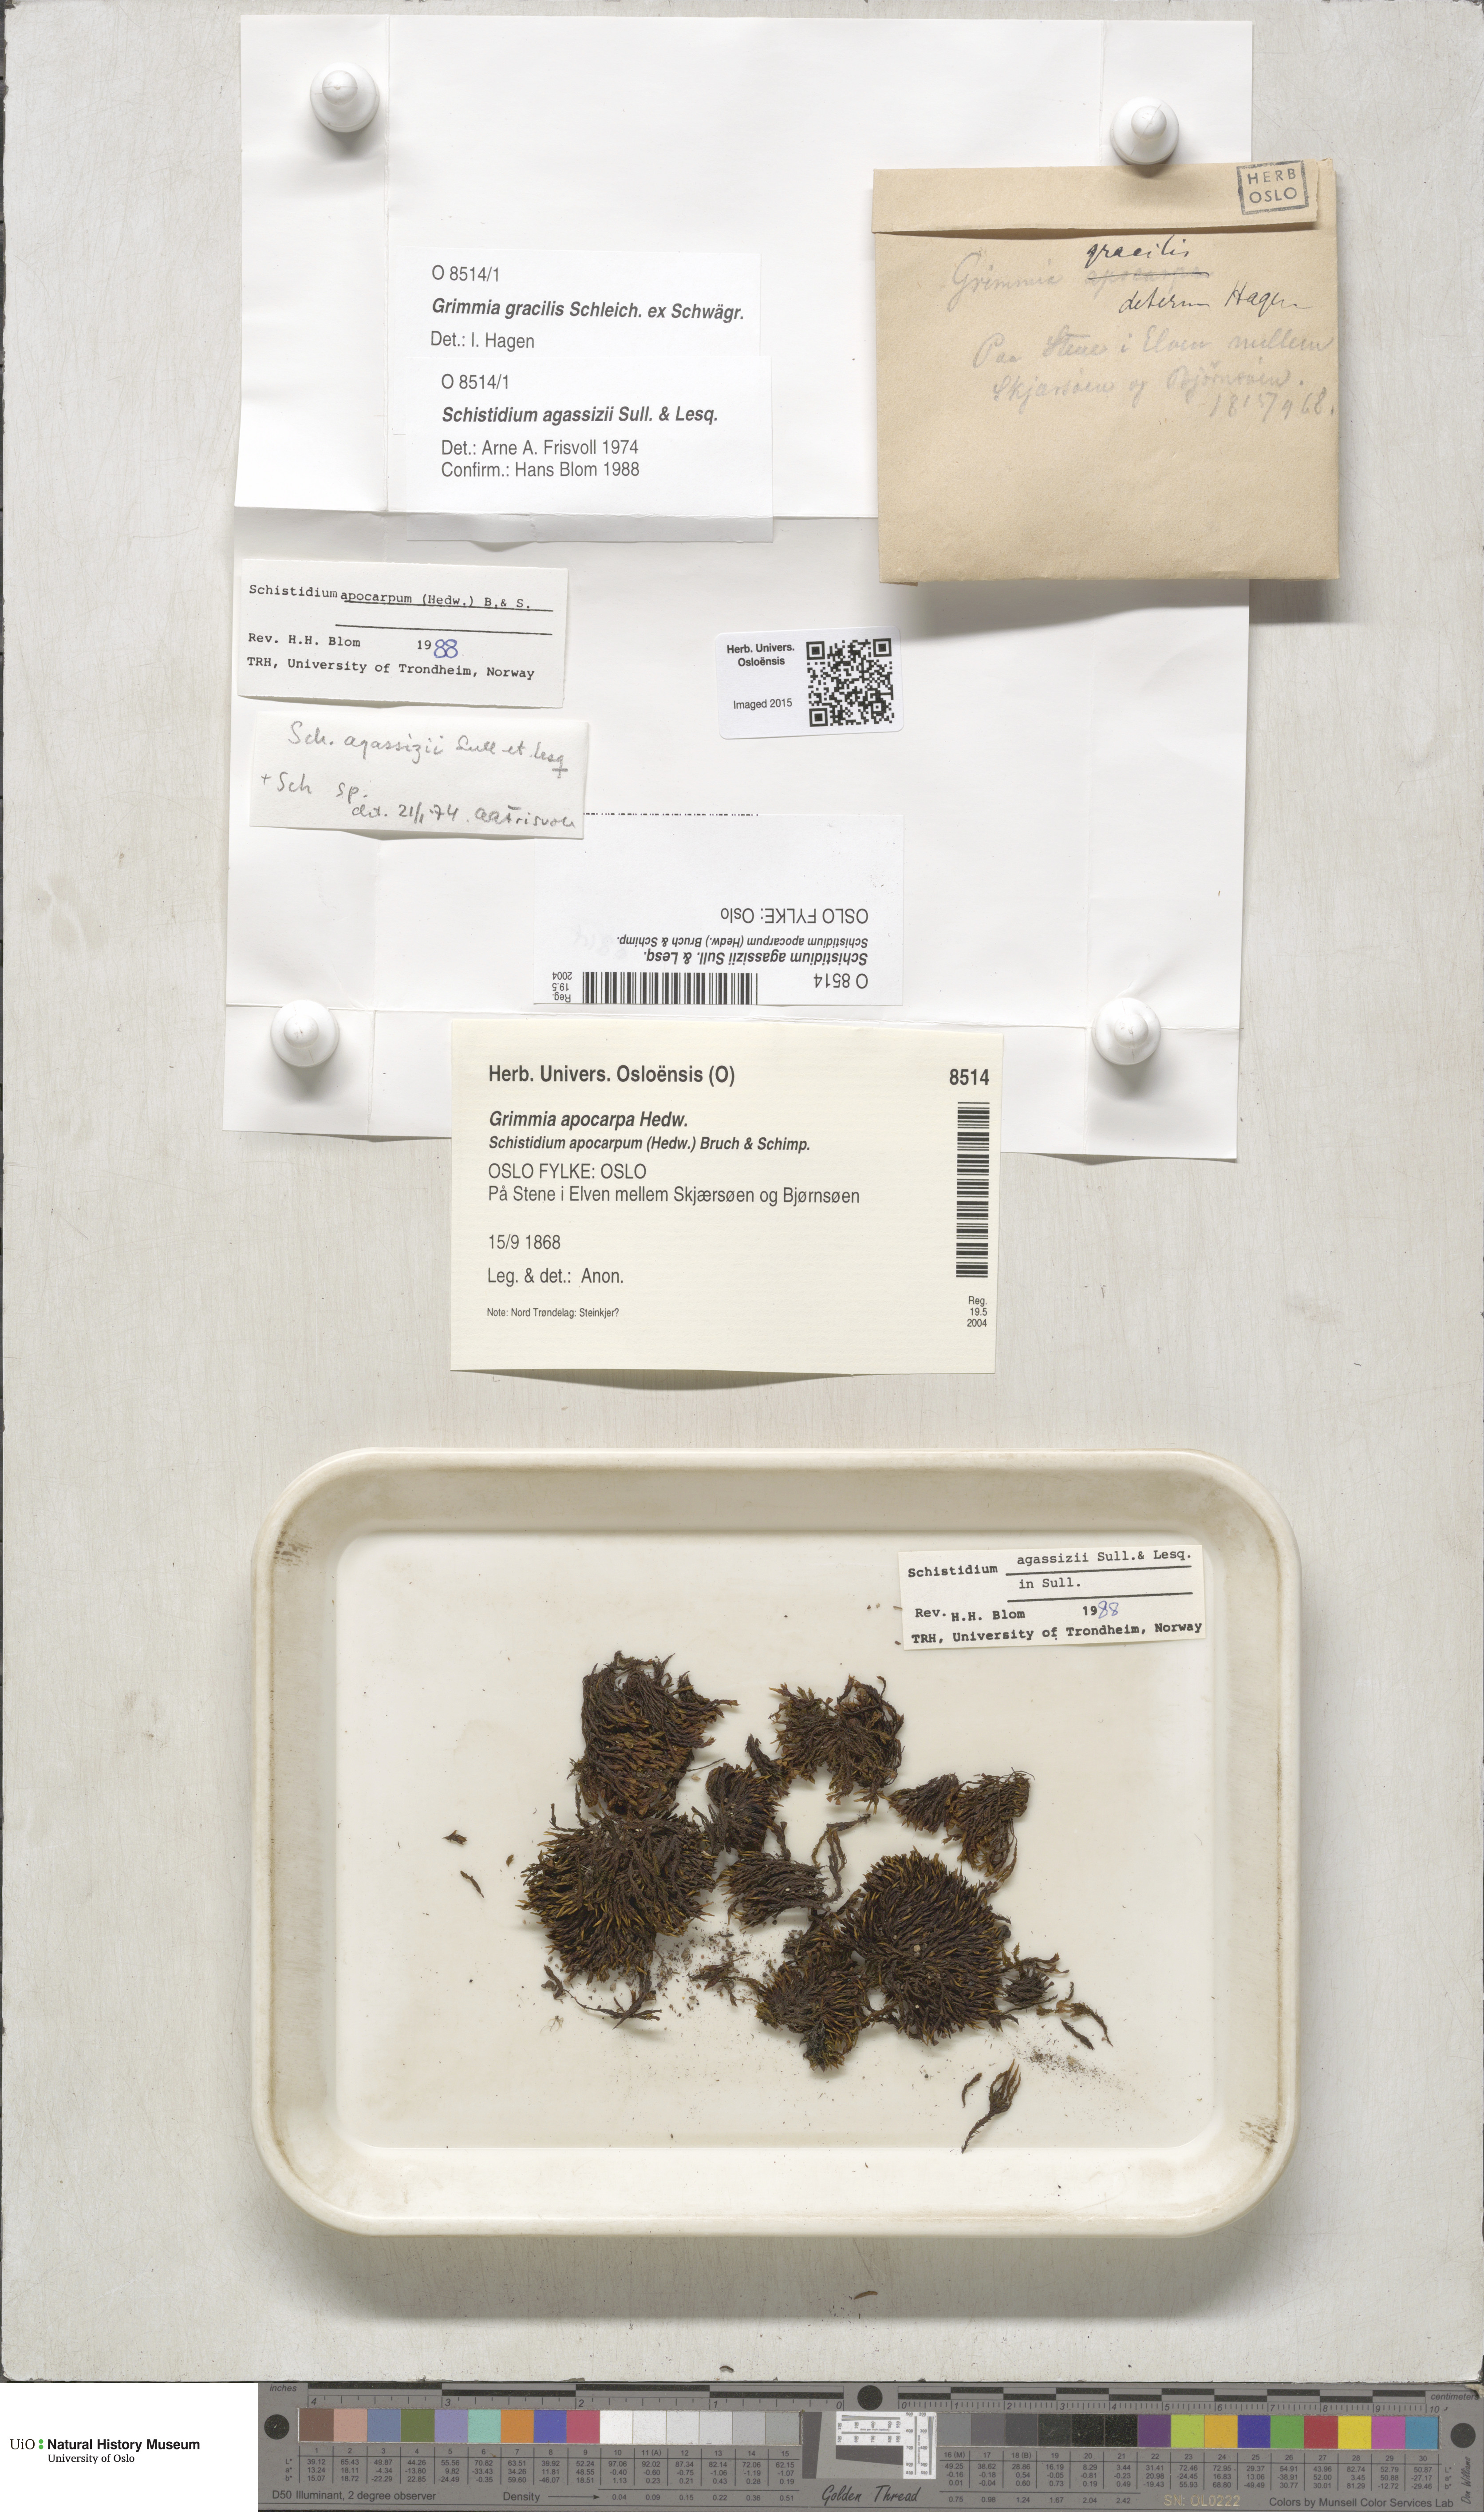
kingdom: Plantae
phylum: Bryophyta
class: Bryopsida
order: Grimmiales
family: Grimmiaceae
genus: Schistidium
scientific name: Schistidium agassizii
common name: Agassiz's bloom moss
